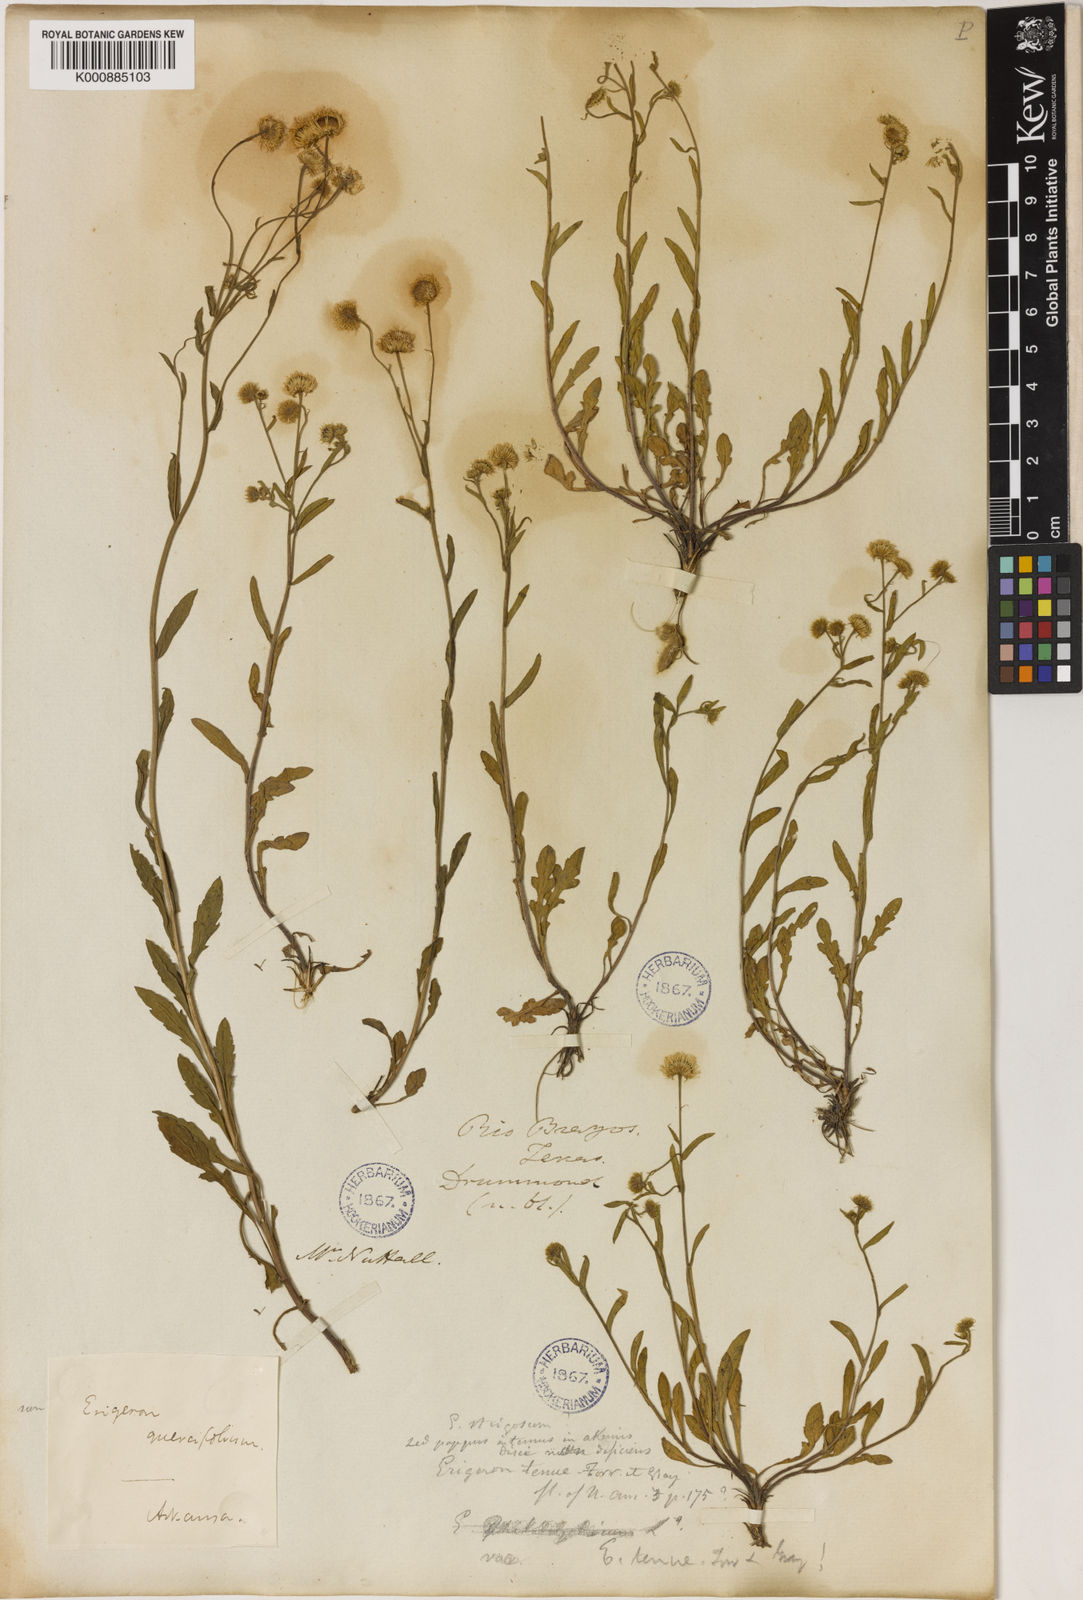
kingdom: Plantae
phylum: Tracheophyta
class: Magnoliopsida
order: Asterales
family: Asteraceae
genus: Erigeron
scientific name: Erigeron tenuis
